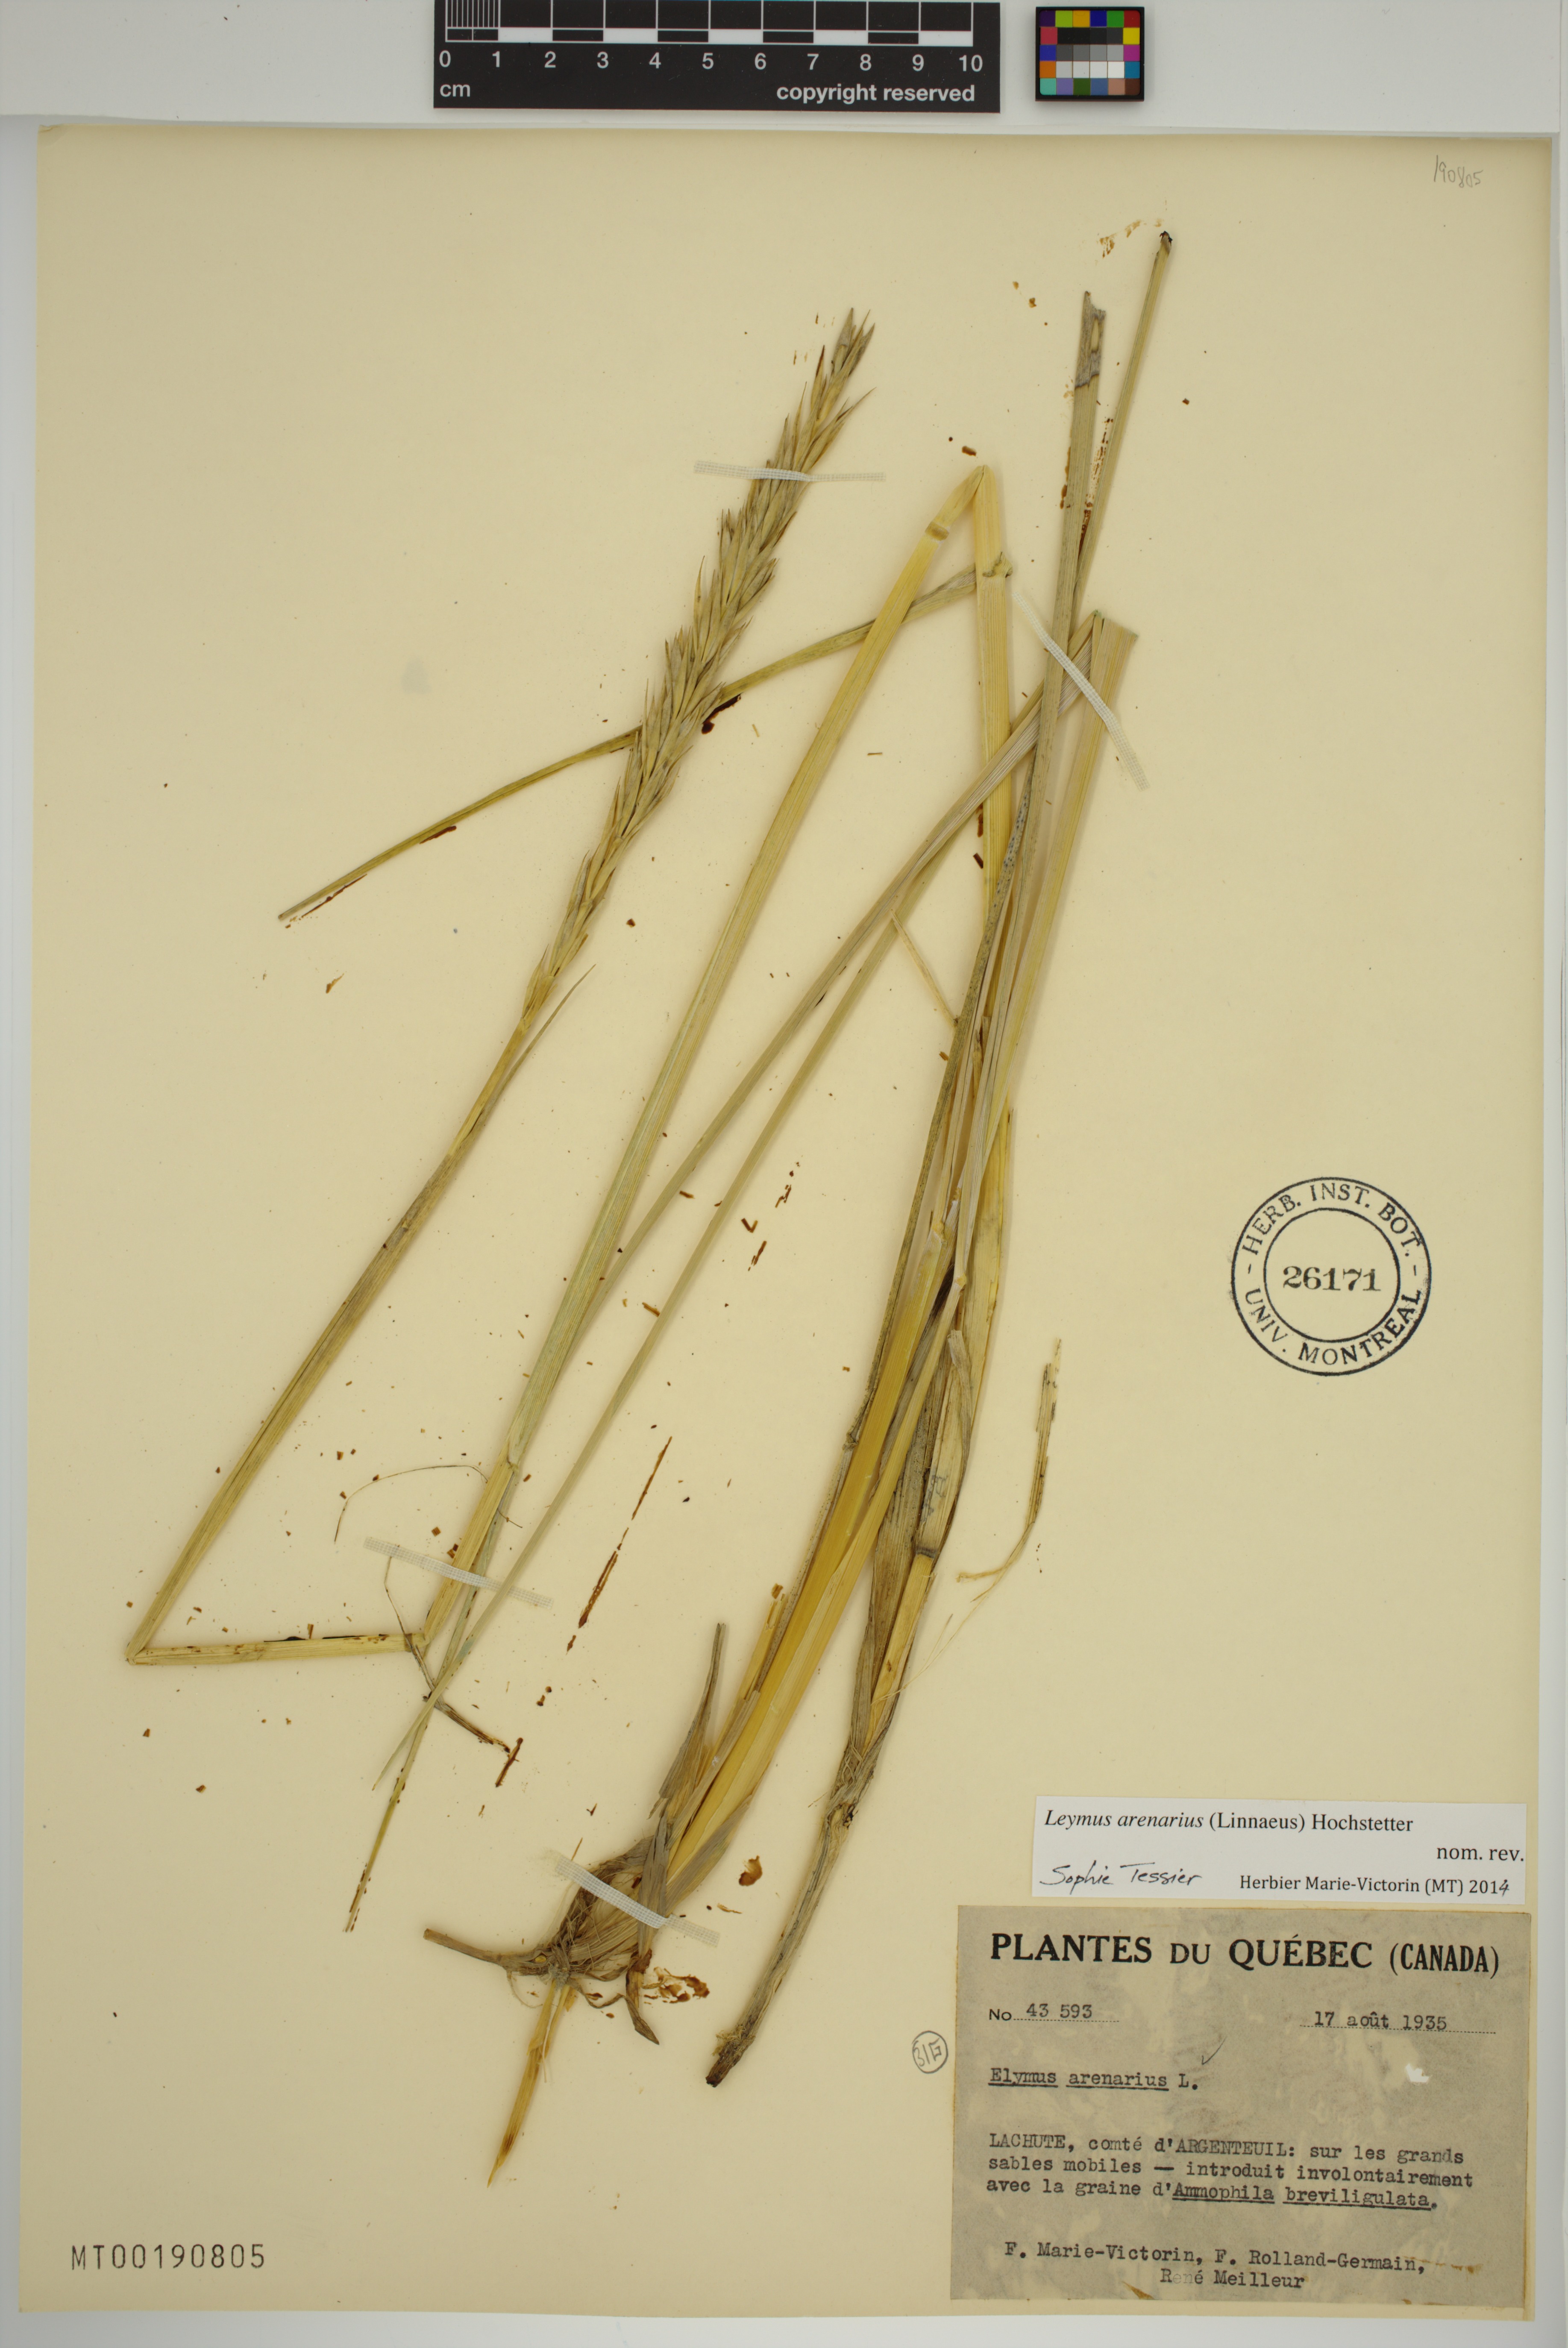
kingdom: Plantae
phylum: Tracheophyta
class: Liliopsida
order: Poales
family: Poaceae
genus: Leymus
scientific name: Leymus arenarius
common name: Lyme-grass
